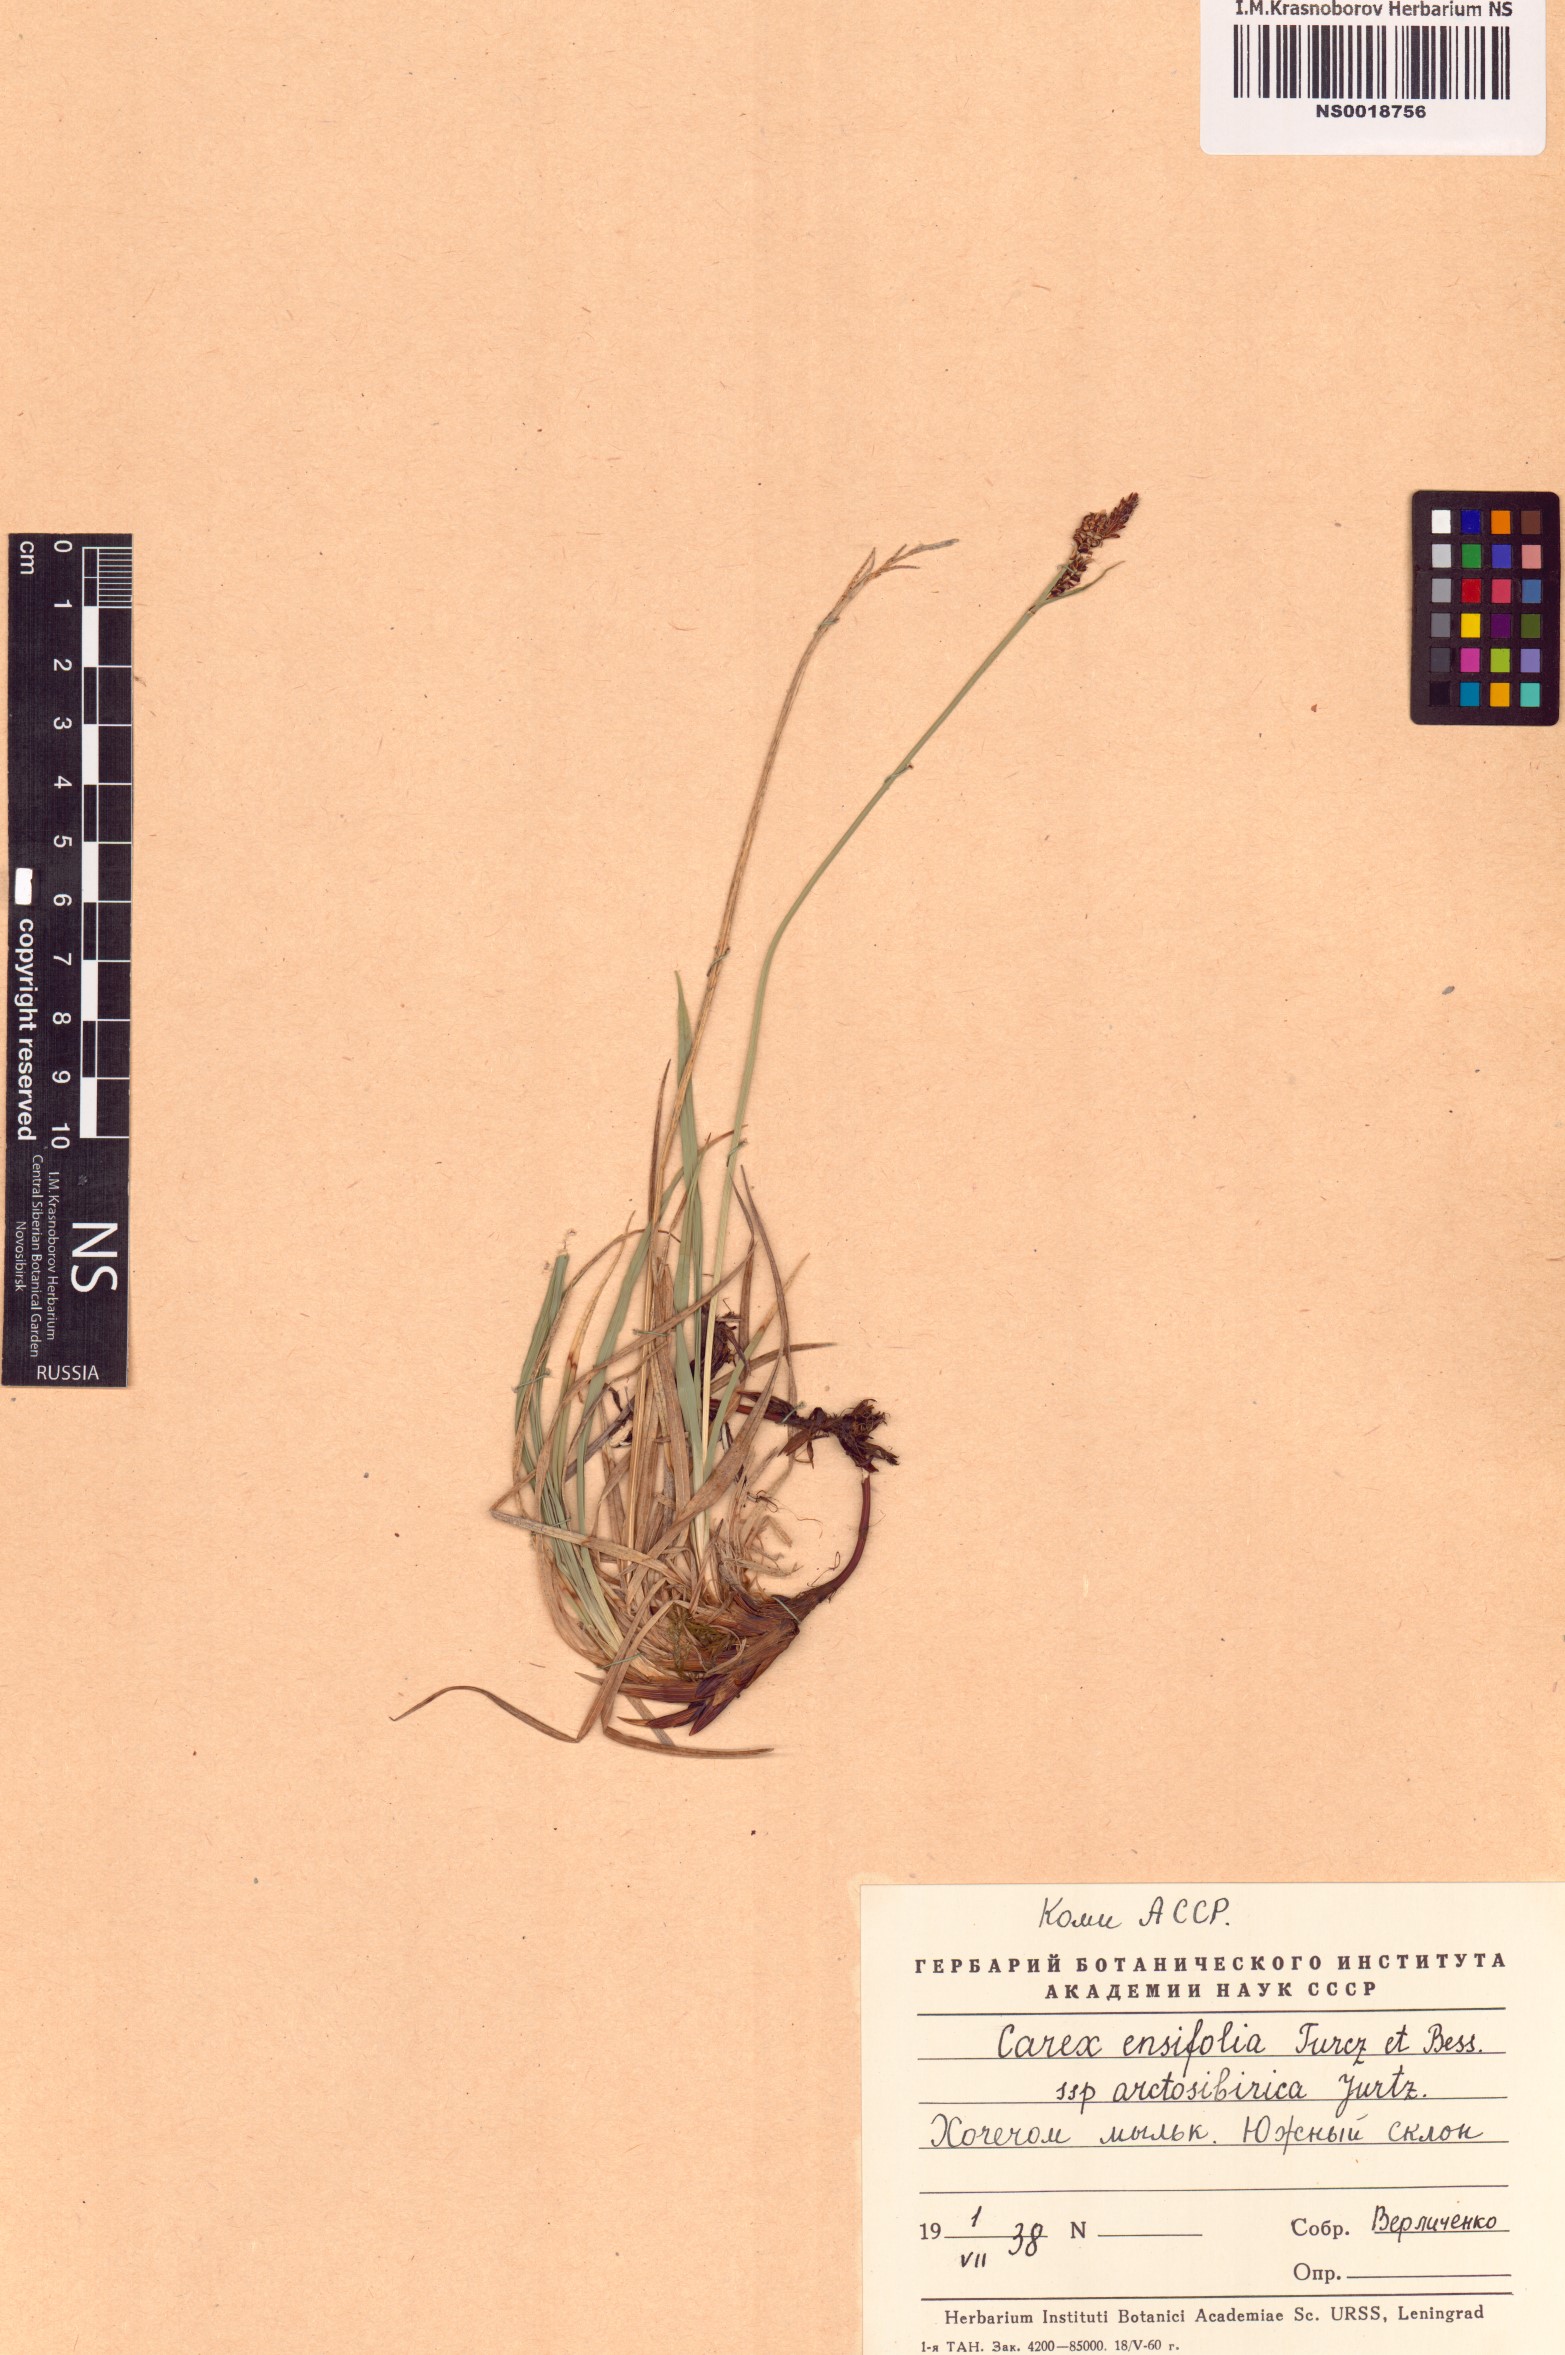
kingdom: Plantae
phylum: Tracheophyta
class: Liliopsida
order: Poales
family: Cyperaceae
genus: Carex
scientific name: Carex bigelowii
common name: Stiff sedge
